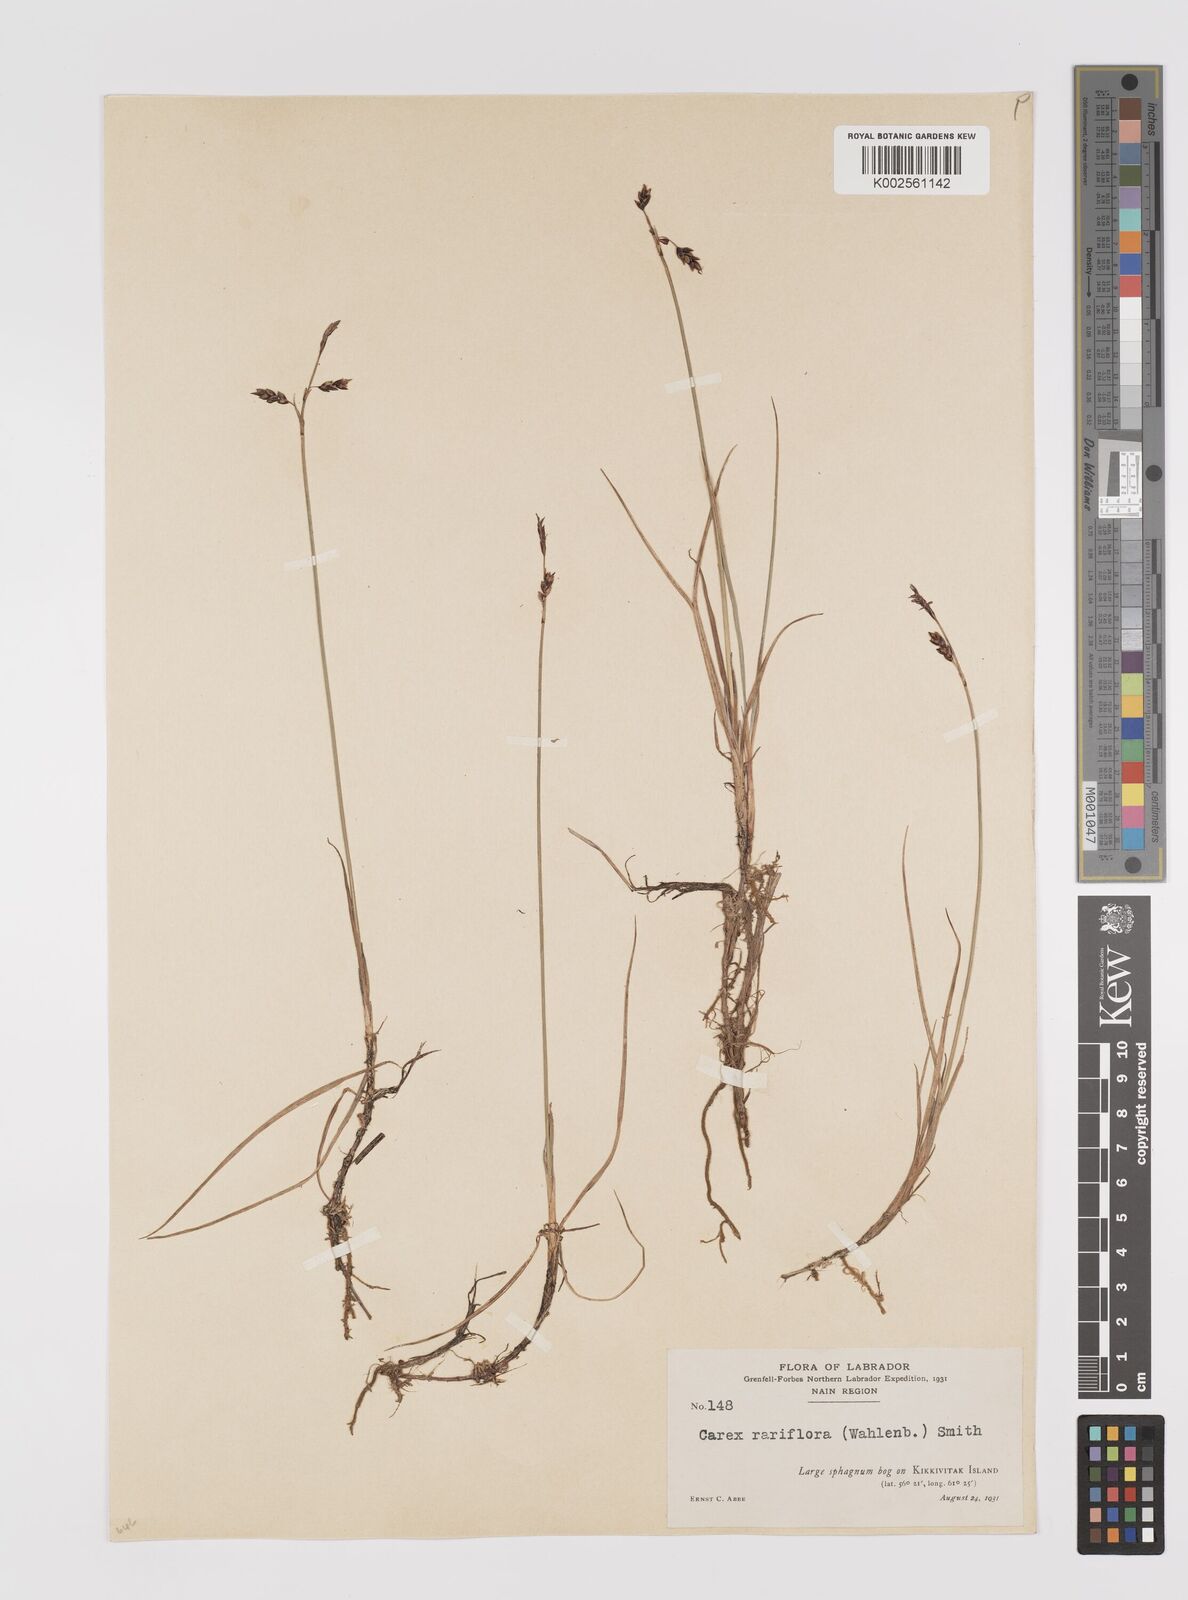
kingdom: Plantae
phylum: Tracheophyta
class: Liliopsida
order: Poales
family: Cyperaceae
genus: Carex
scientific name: Carex rariflora
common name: Loose-flowered alpine sedge
